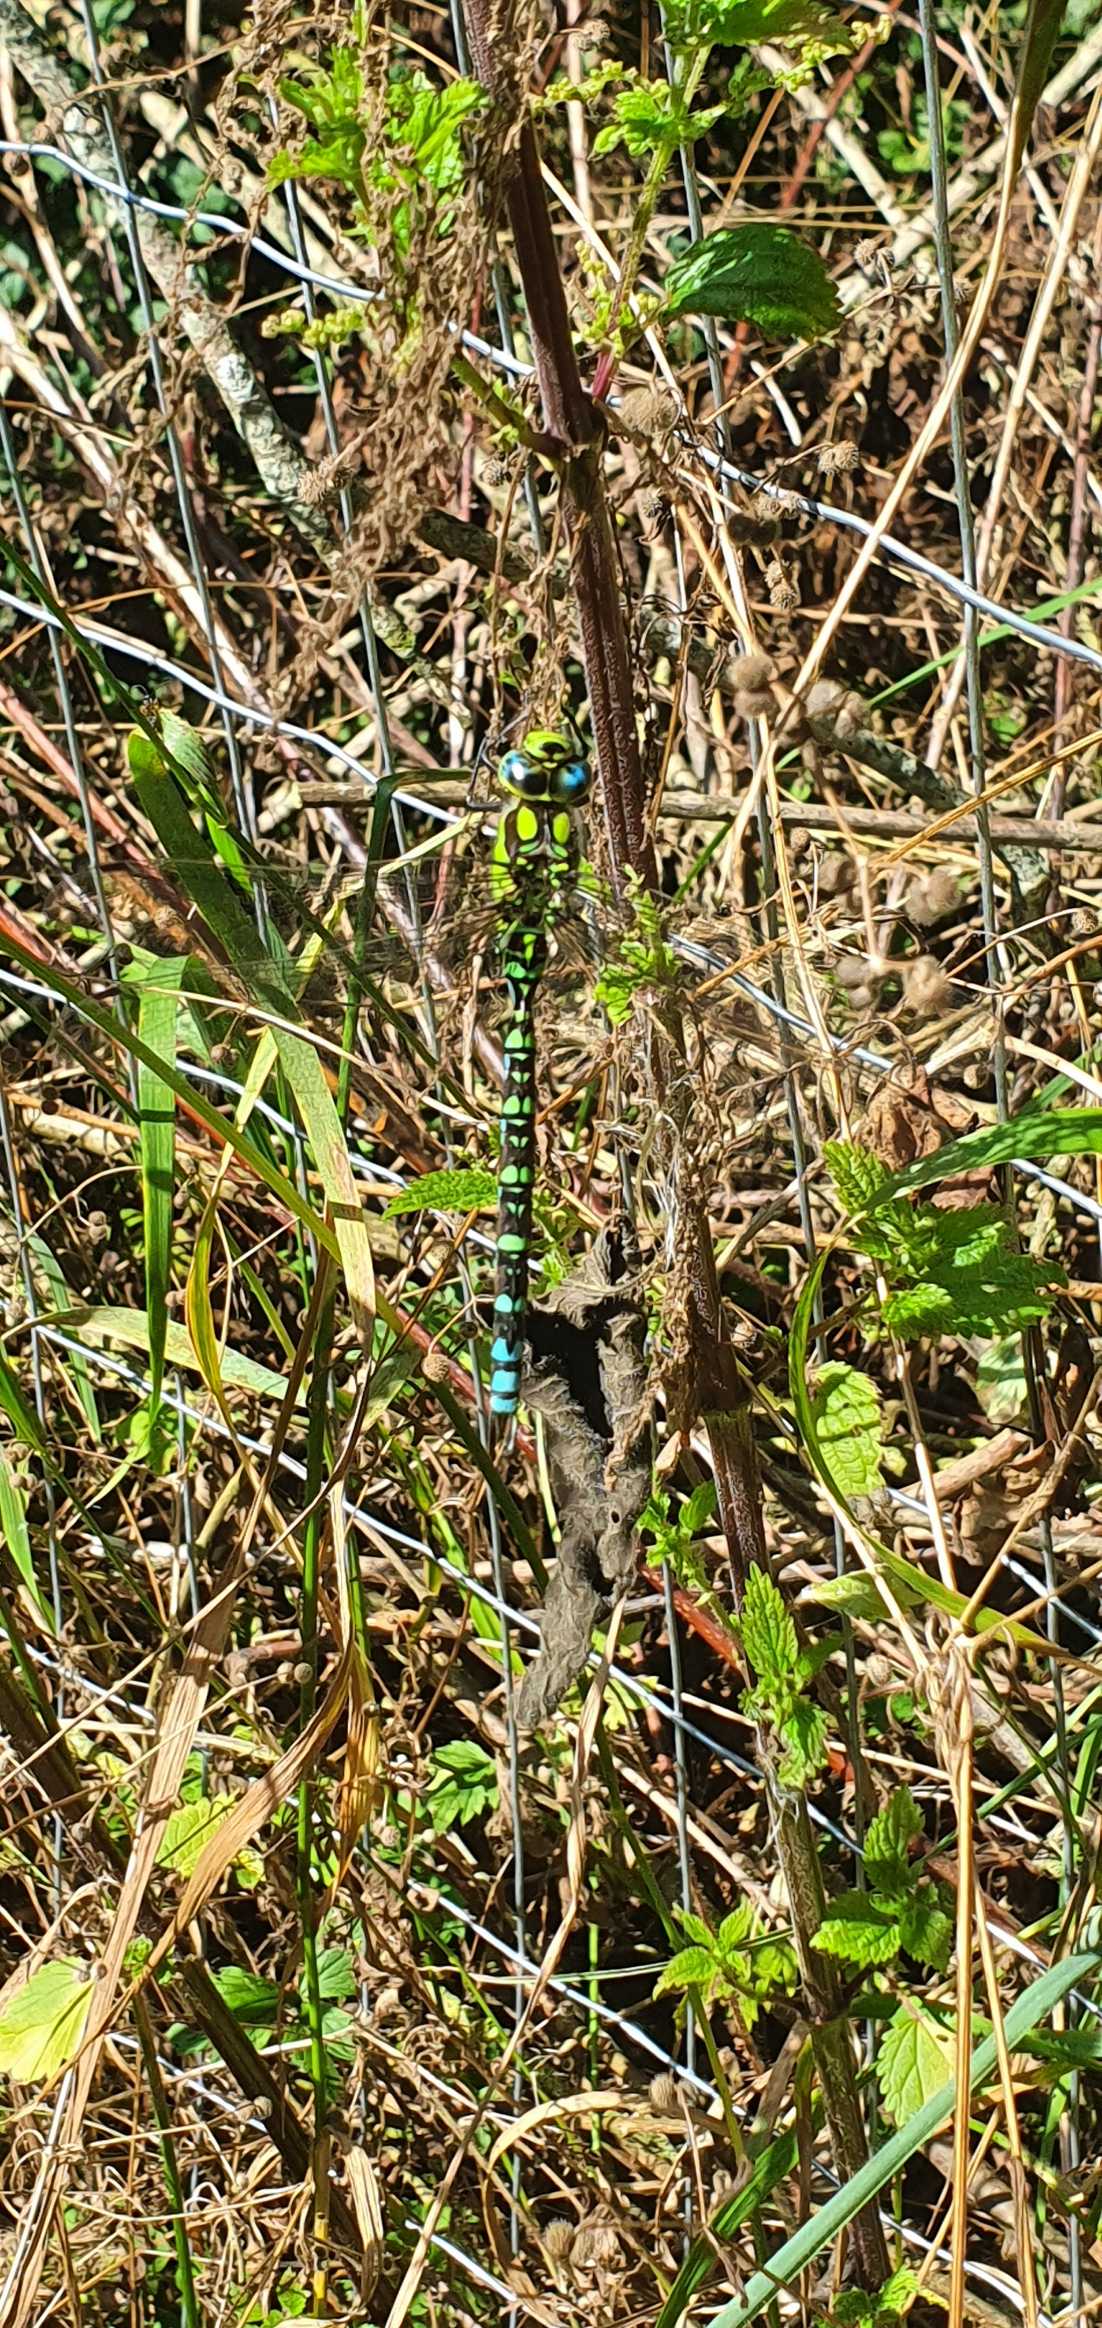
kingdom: Animalia
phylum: Arthropoda
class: Insecta
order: Odonata
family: Aeshnidae
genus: Aeshna
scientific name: Aeshna cyanea
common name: Blå mosaikguldsmed
